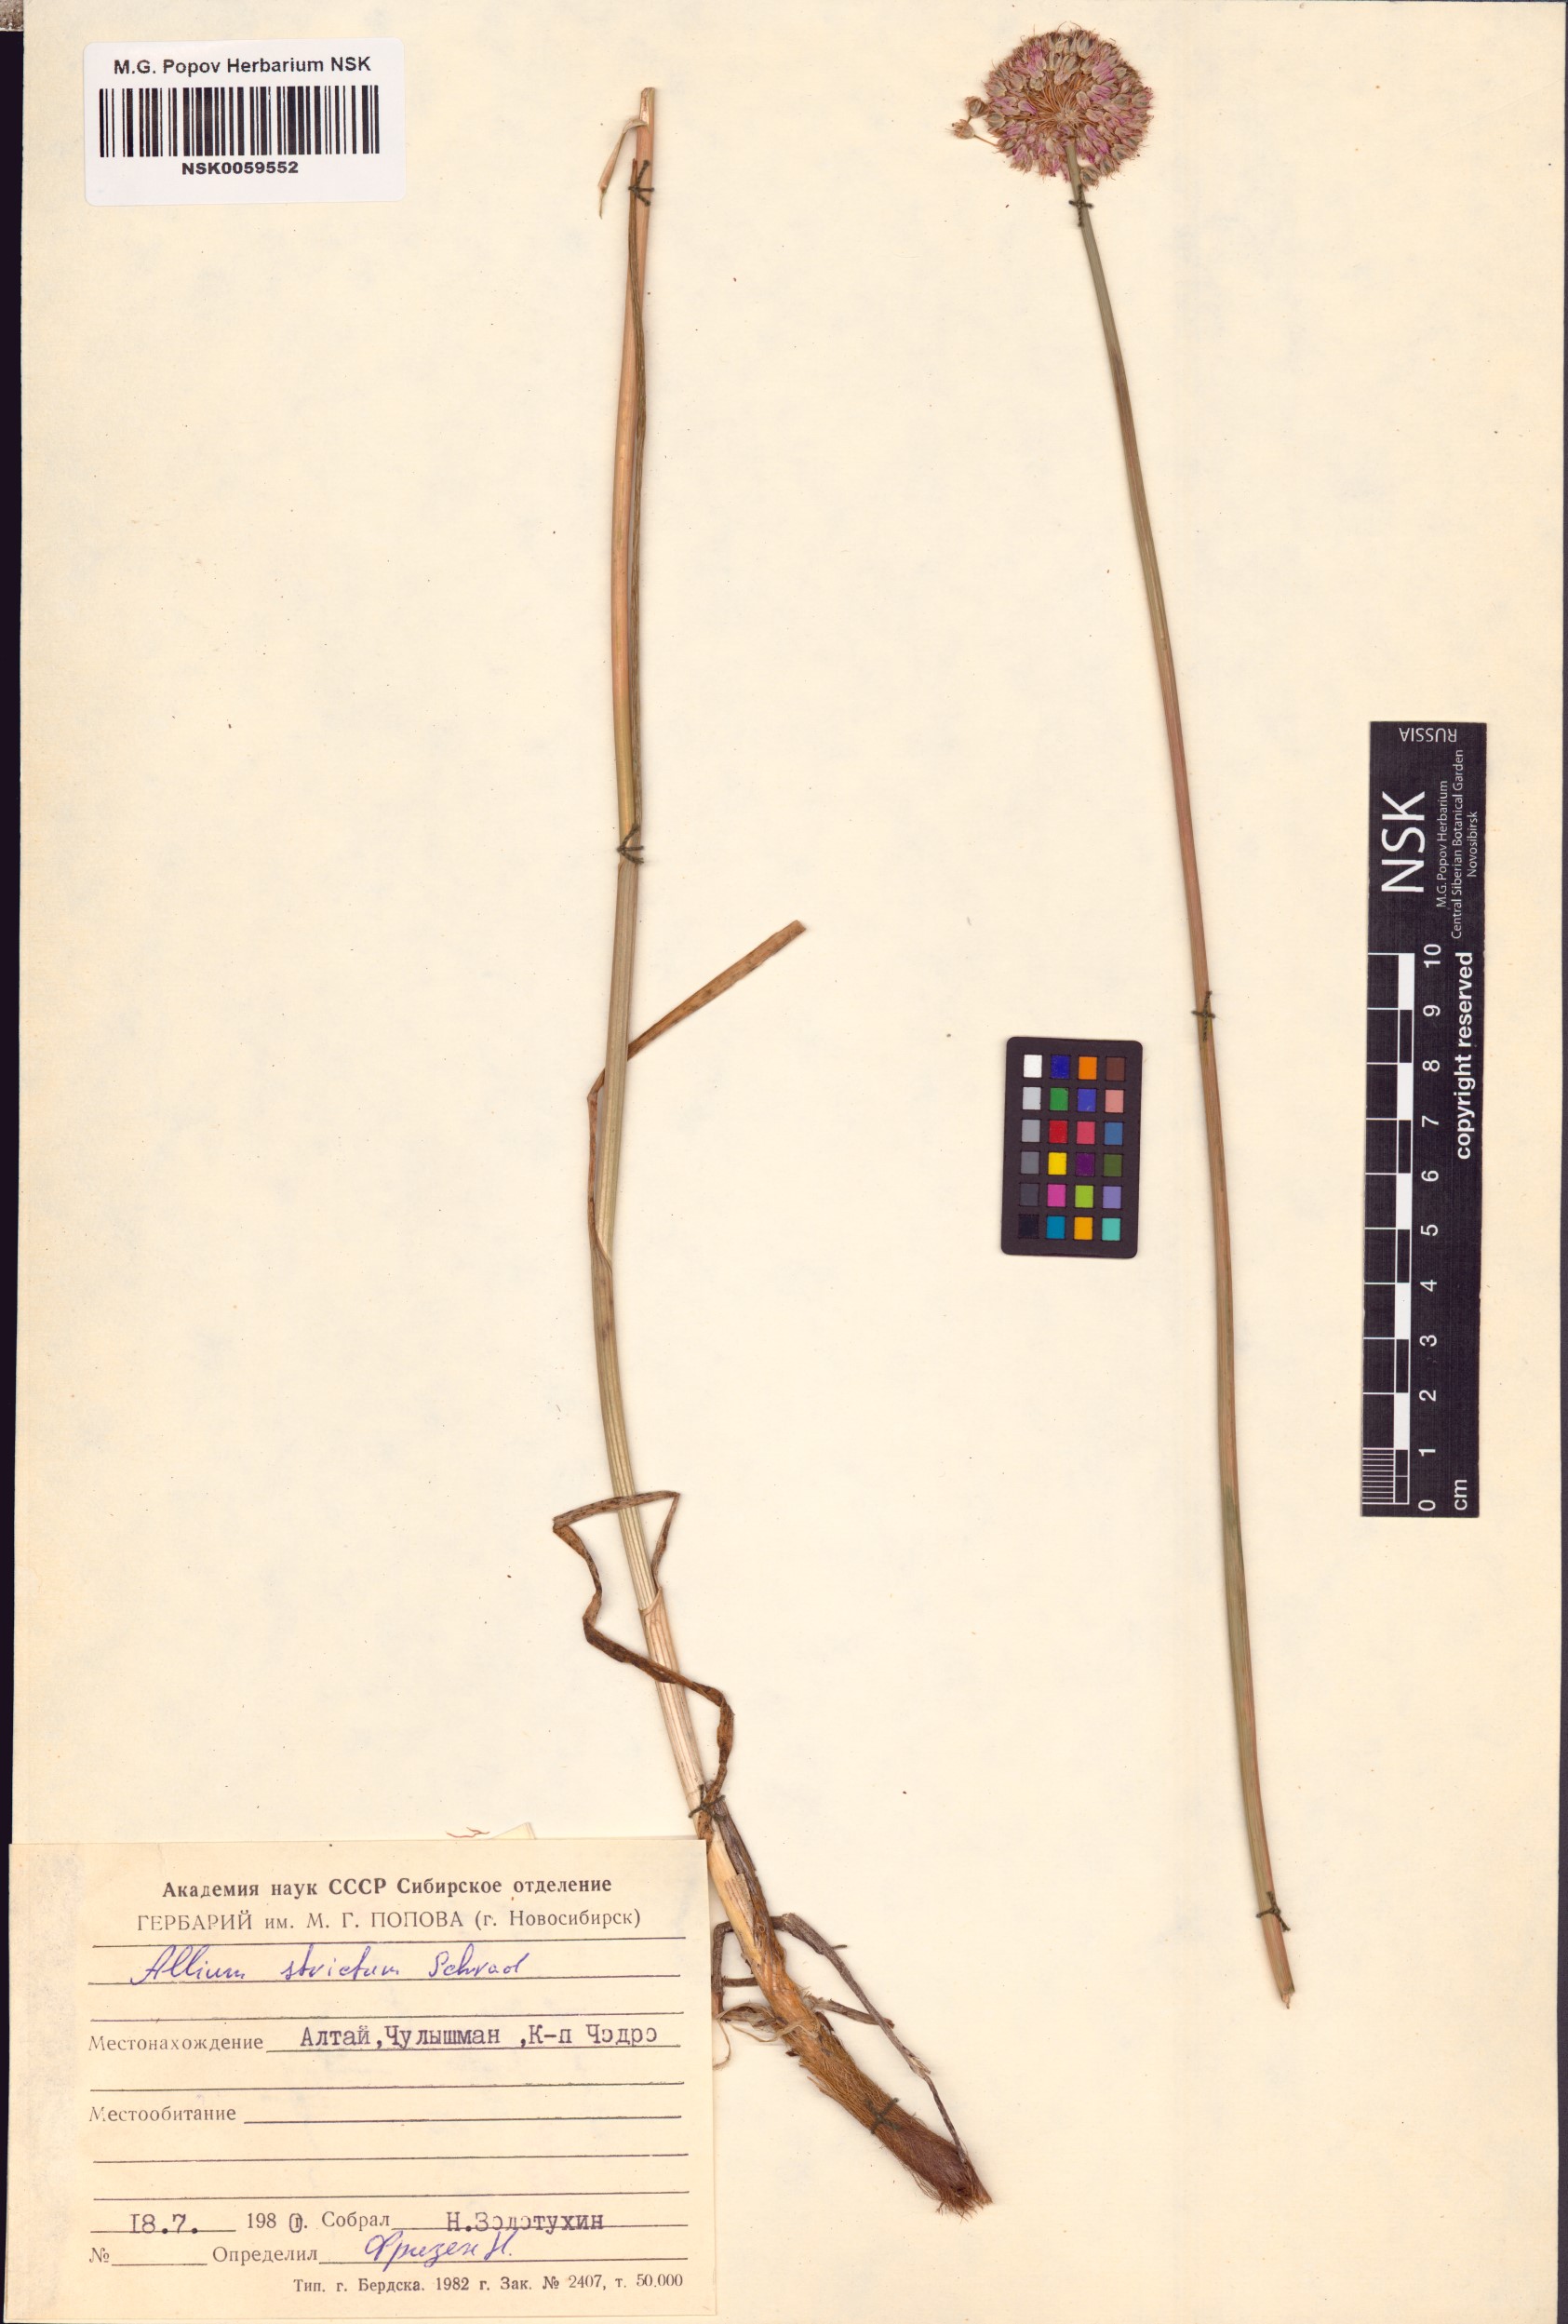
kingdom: Plantae
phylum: Tracheophyta
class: Liliopsida
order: Asparagales
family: Amaryllidaceae
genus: Allium
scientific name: Allium strictum
